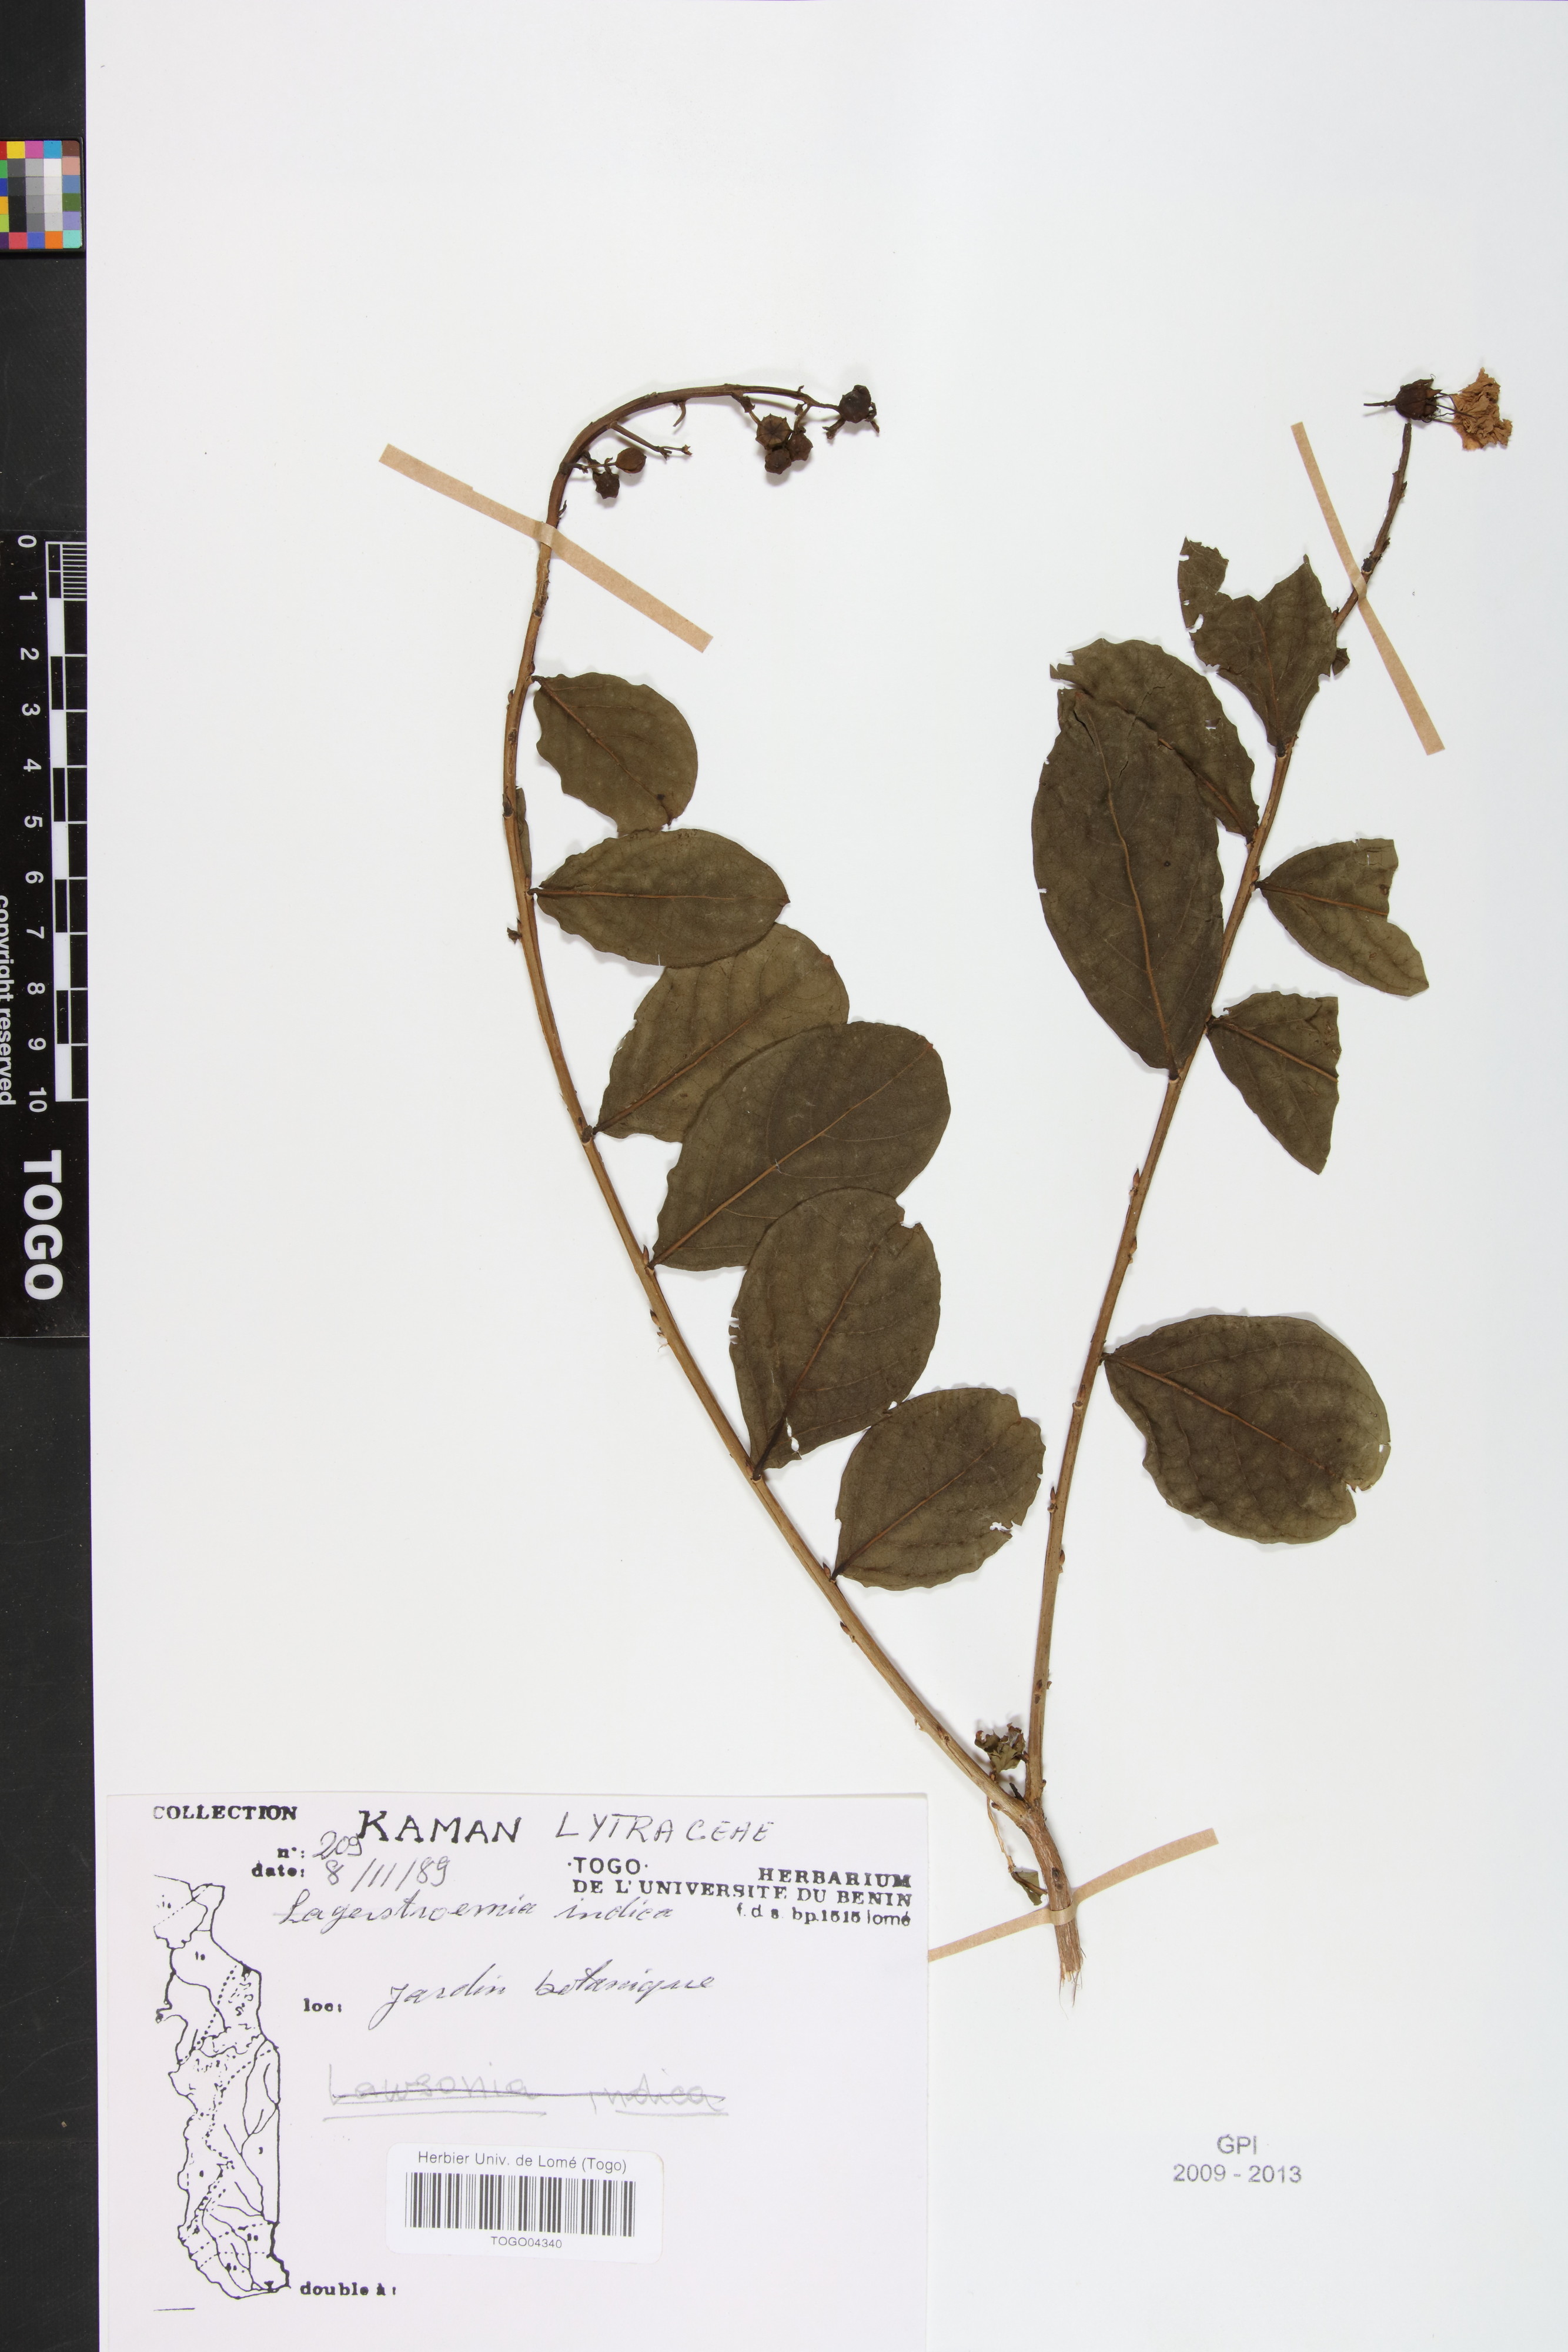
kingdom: Plantae
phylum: Tracheophyta
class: Magnoliopsida
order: Myrtales
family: Lythraceae
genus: Lawsonia
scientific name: Lawsonia inermis
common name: Henna
